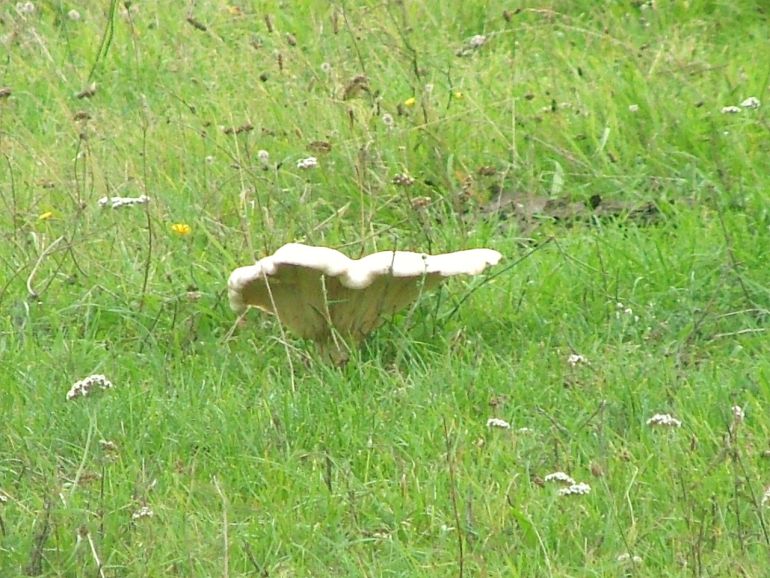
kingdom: Fungi
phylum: Basidiomycota
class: Agaricomycetes
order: Agaricales
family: Tricholomataceae
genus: Aspropaxillus
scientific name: Aspropaxillus giganteus
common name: kæmpe-tragtridderhat
